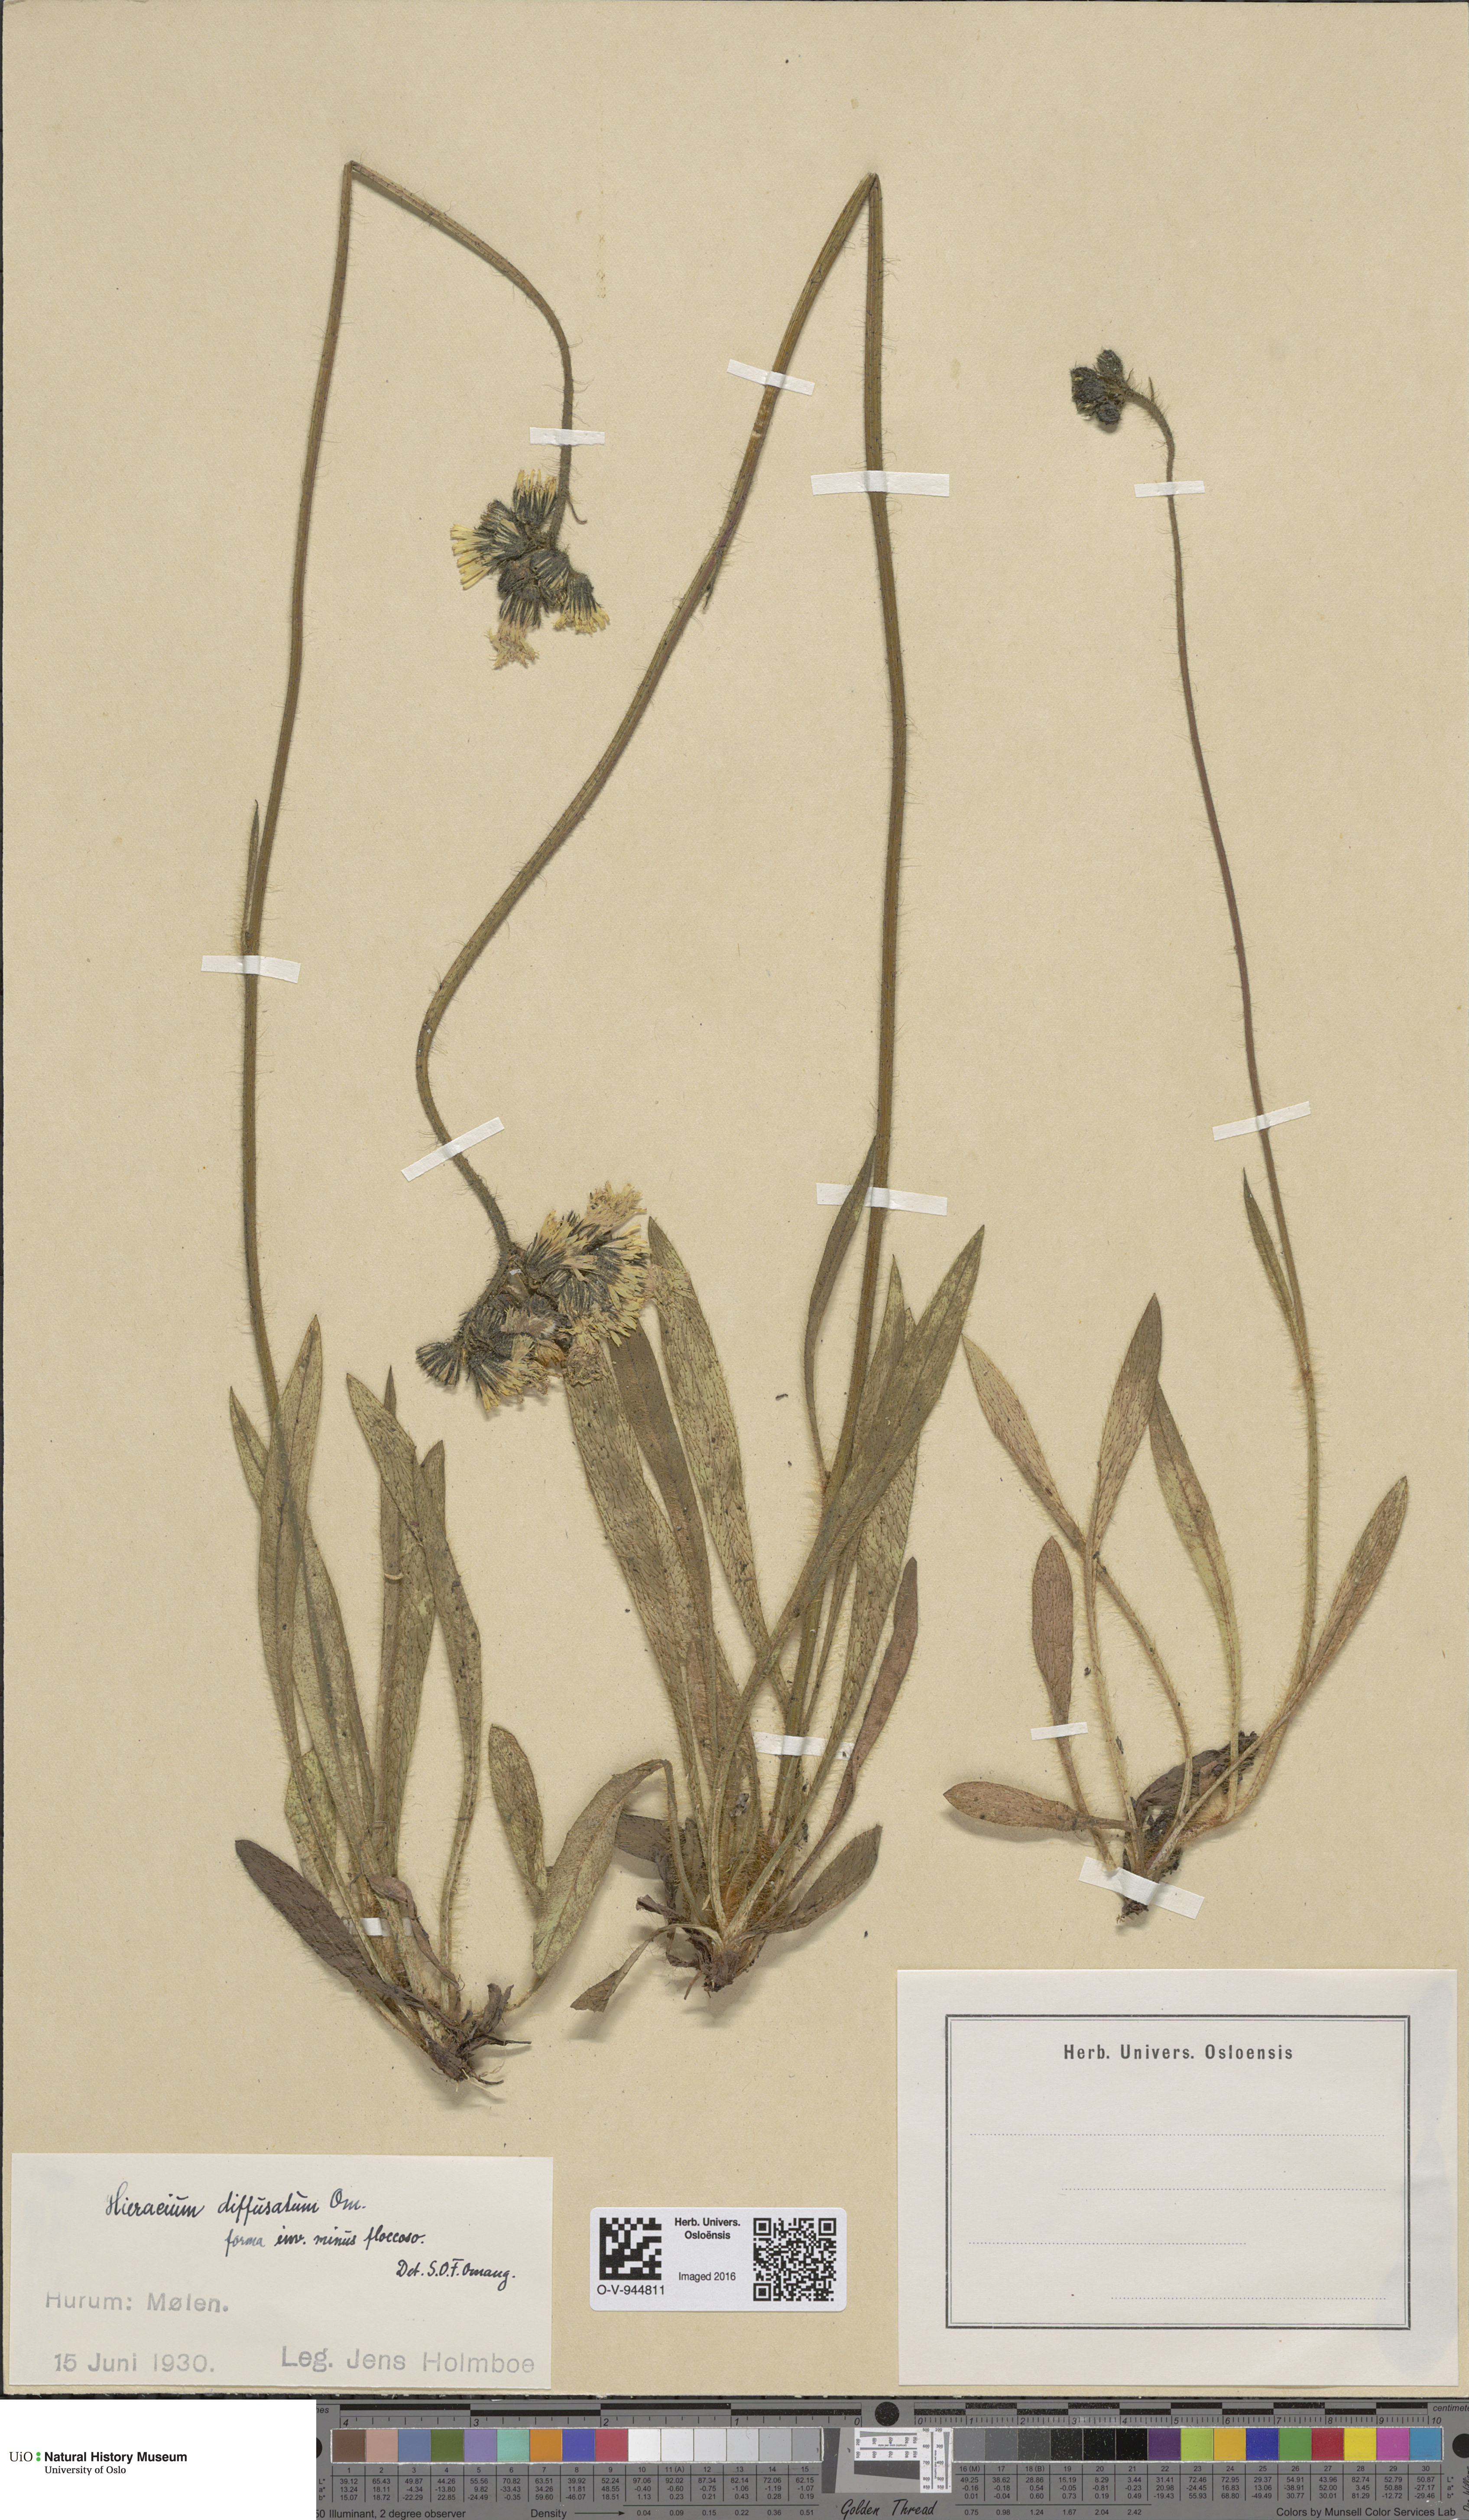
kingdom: Plantae
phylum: Tracheophyta
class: Magnoliopsida
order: Asterales
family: Asteraceae
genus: Pilosella
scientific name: Pilosella dubia
